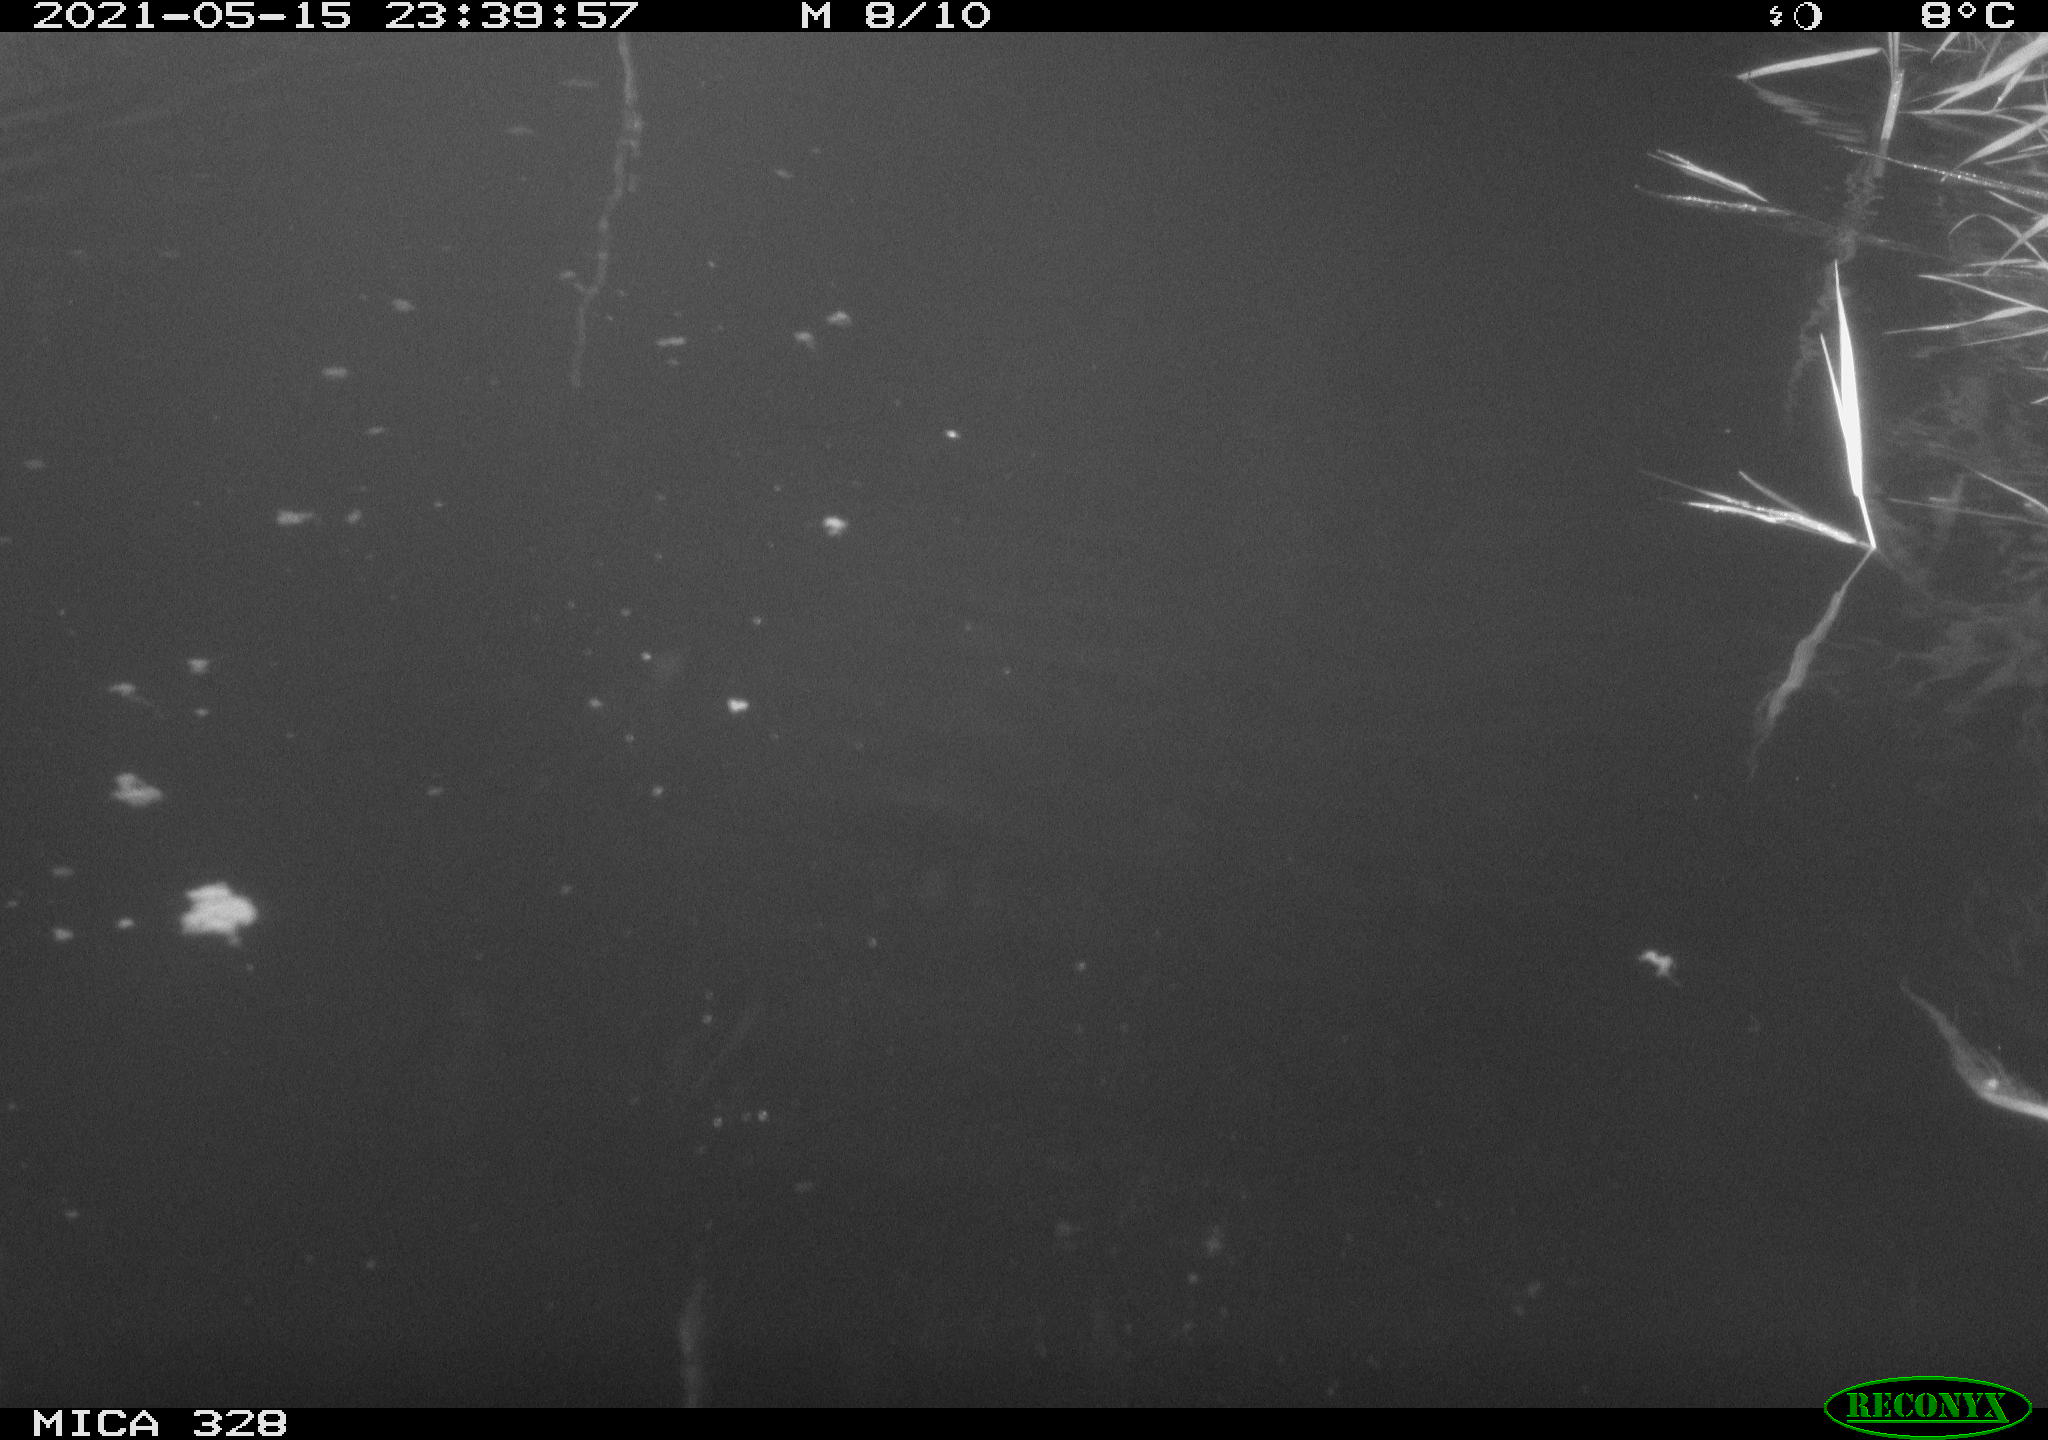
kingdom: Animalia
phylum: Chordata
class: Mammalia
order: Rodentia
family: Cricetidae
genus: Ondatra
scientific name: Ondatra zibethicus
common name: Muskrat
